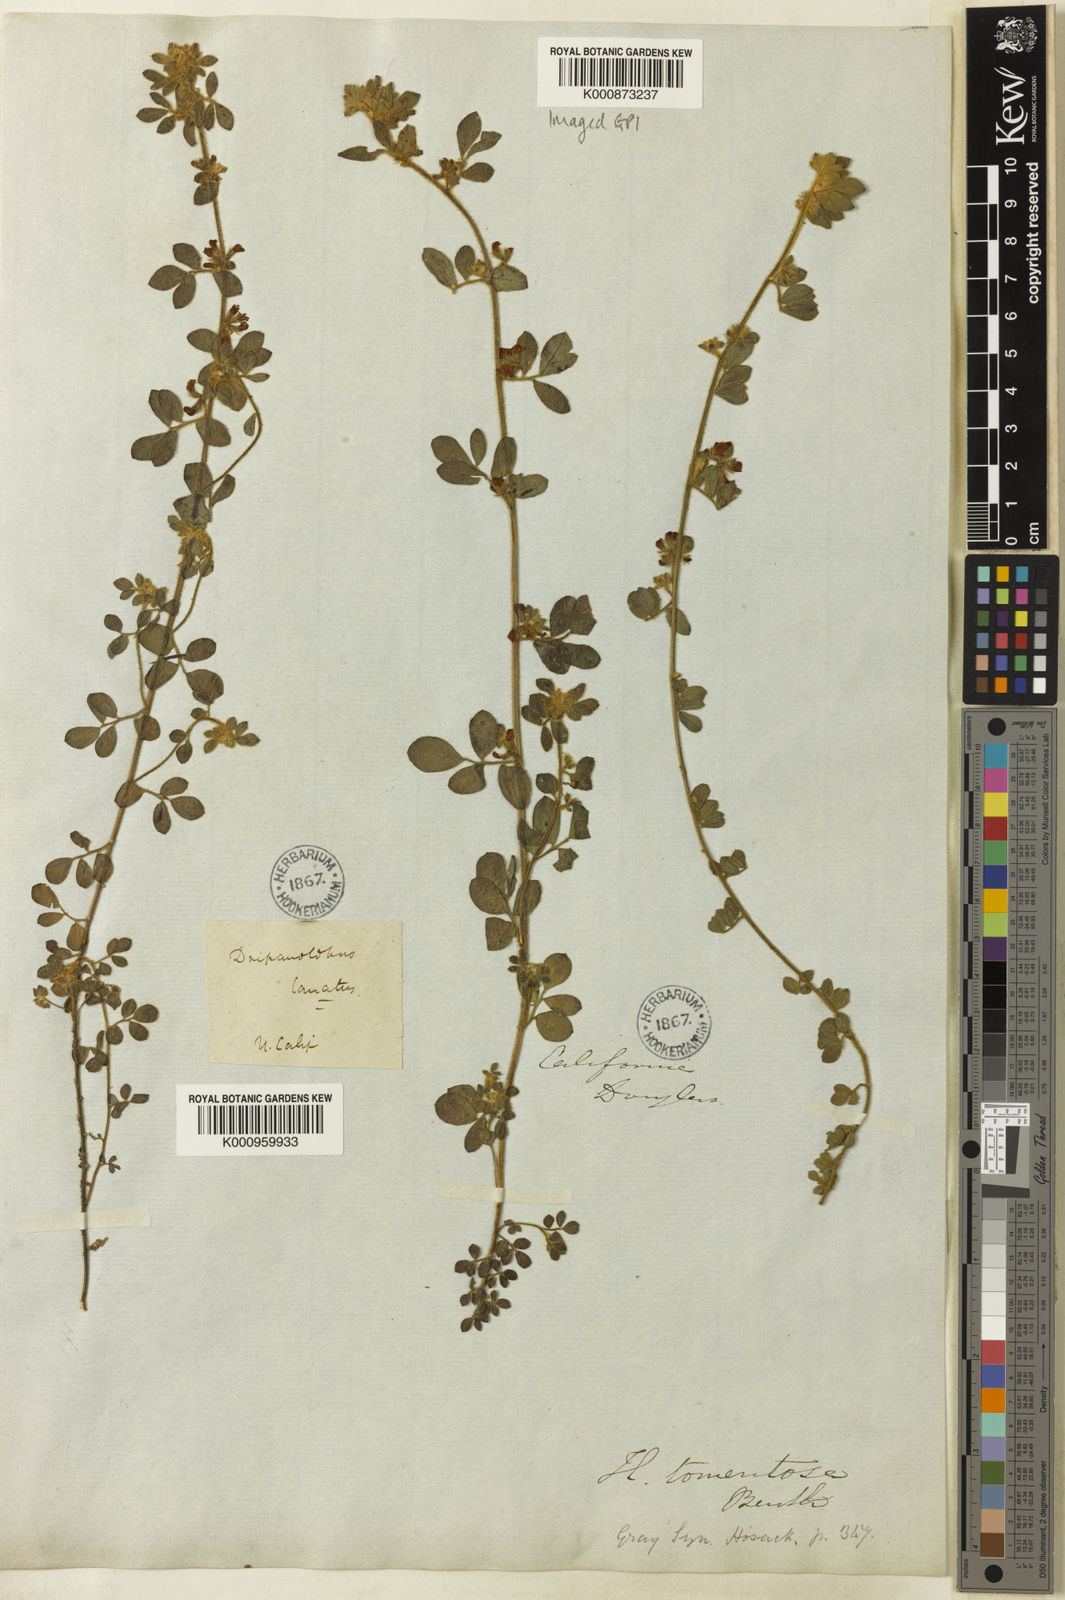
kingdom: Plantae
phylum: Tracheophyta
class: Magnoliopsida
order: Fabales
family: Fabaceae
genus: Acmispon
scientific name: Acmispon tomentosus
